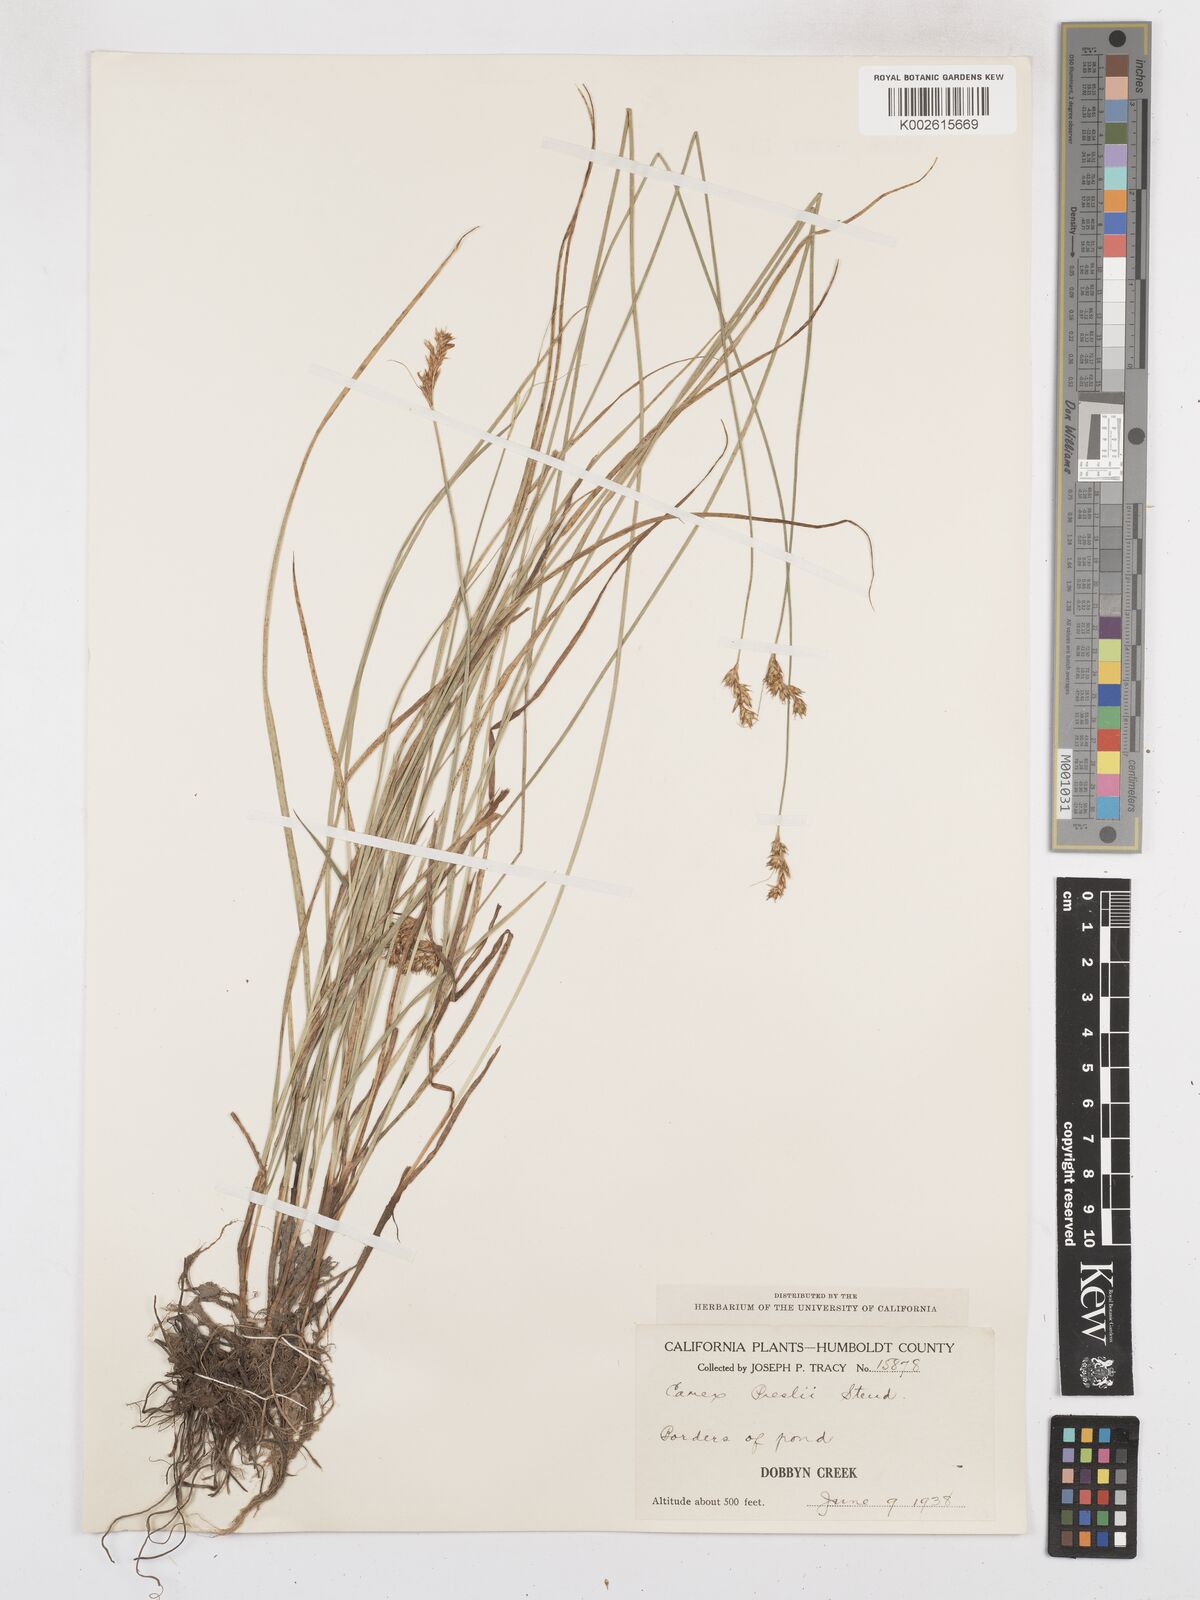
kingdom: Plantae
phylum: Tracheophyta
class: Liliopsida
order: Poales
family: Cyperaceae
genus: Carex
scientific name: Carex preslii
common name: Presl's sedge
